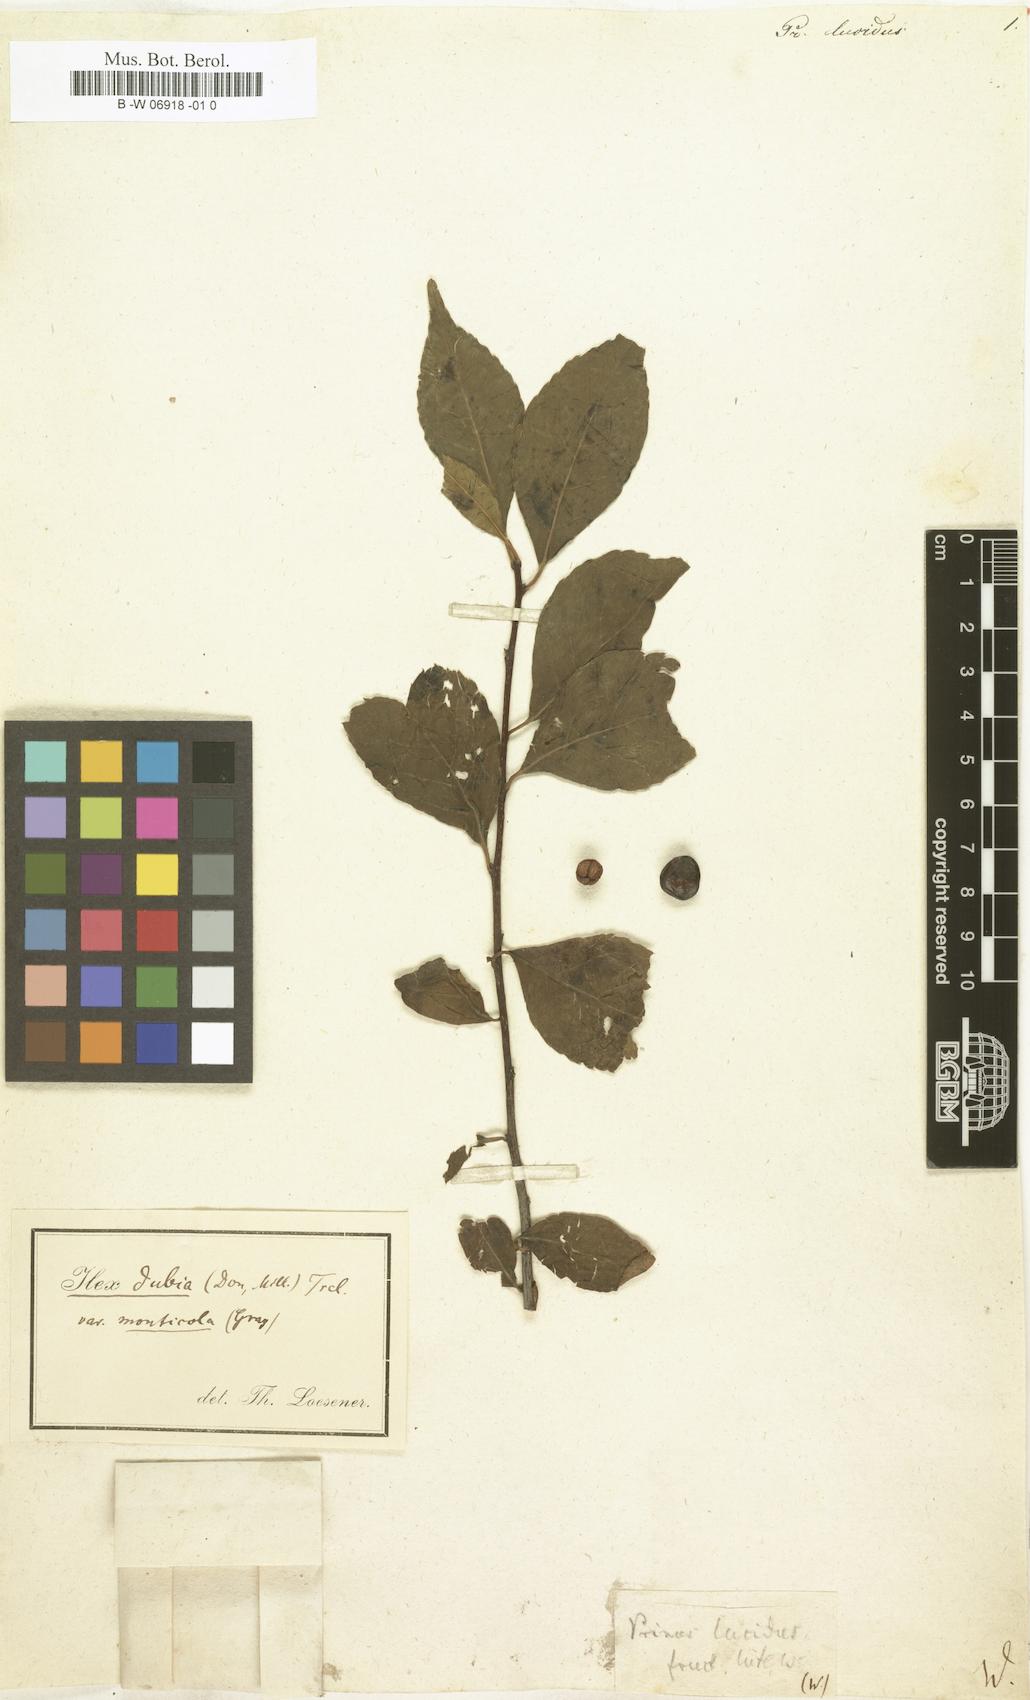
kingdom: Plantae
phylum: Tracheophyta
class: Magnoliopsida
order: Aquifoliales
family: Aquifoliaceae
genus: Ilex
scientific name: Ilex coriacea
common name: Sweet gallberry
